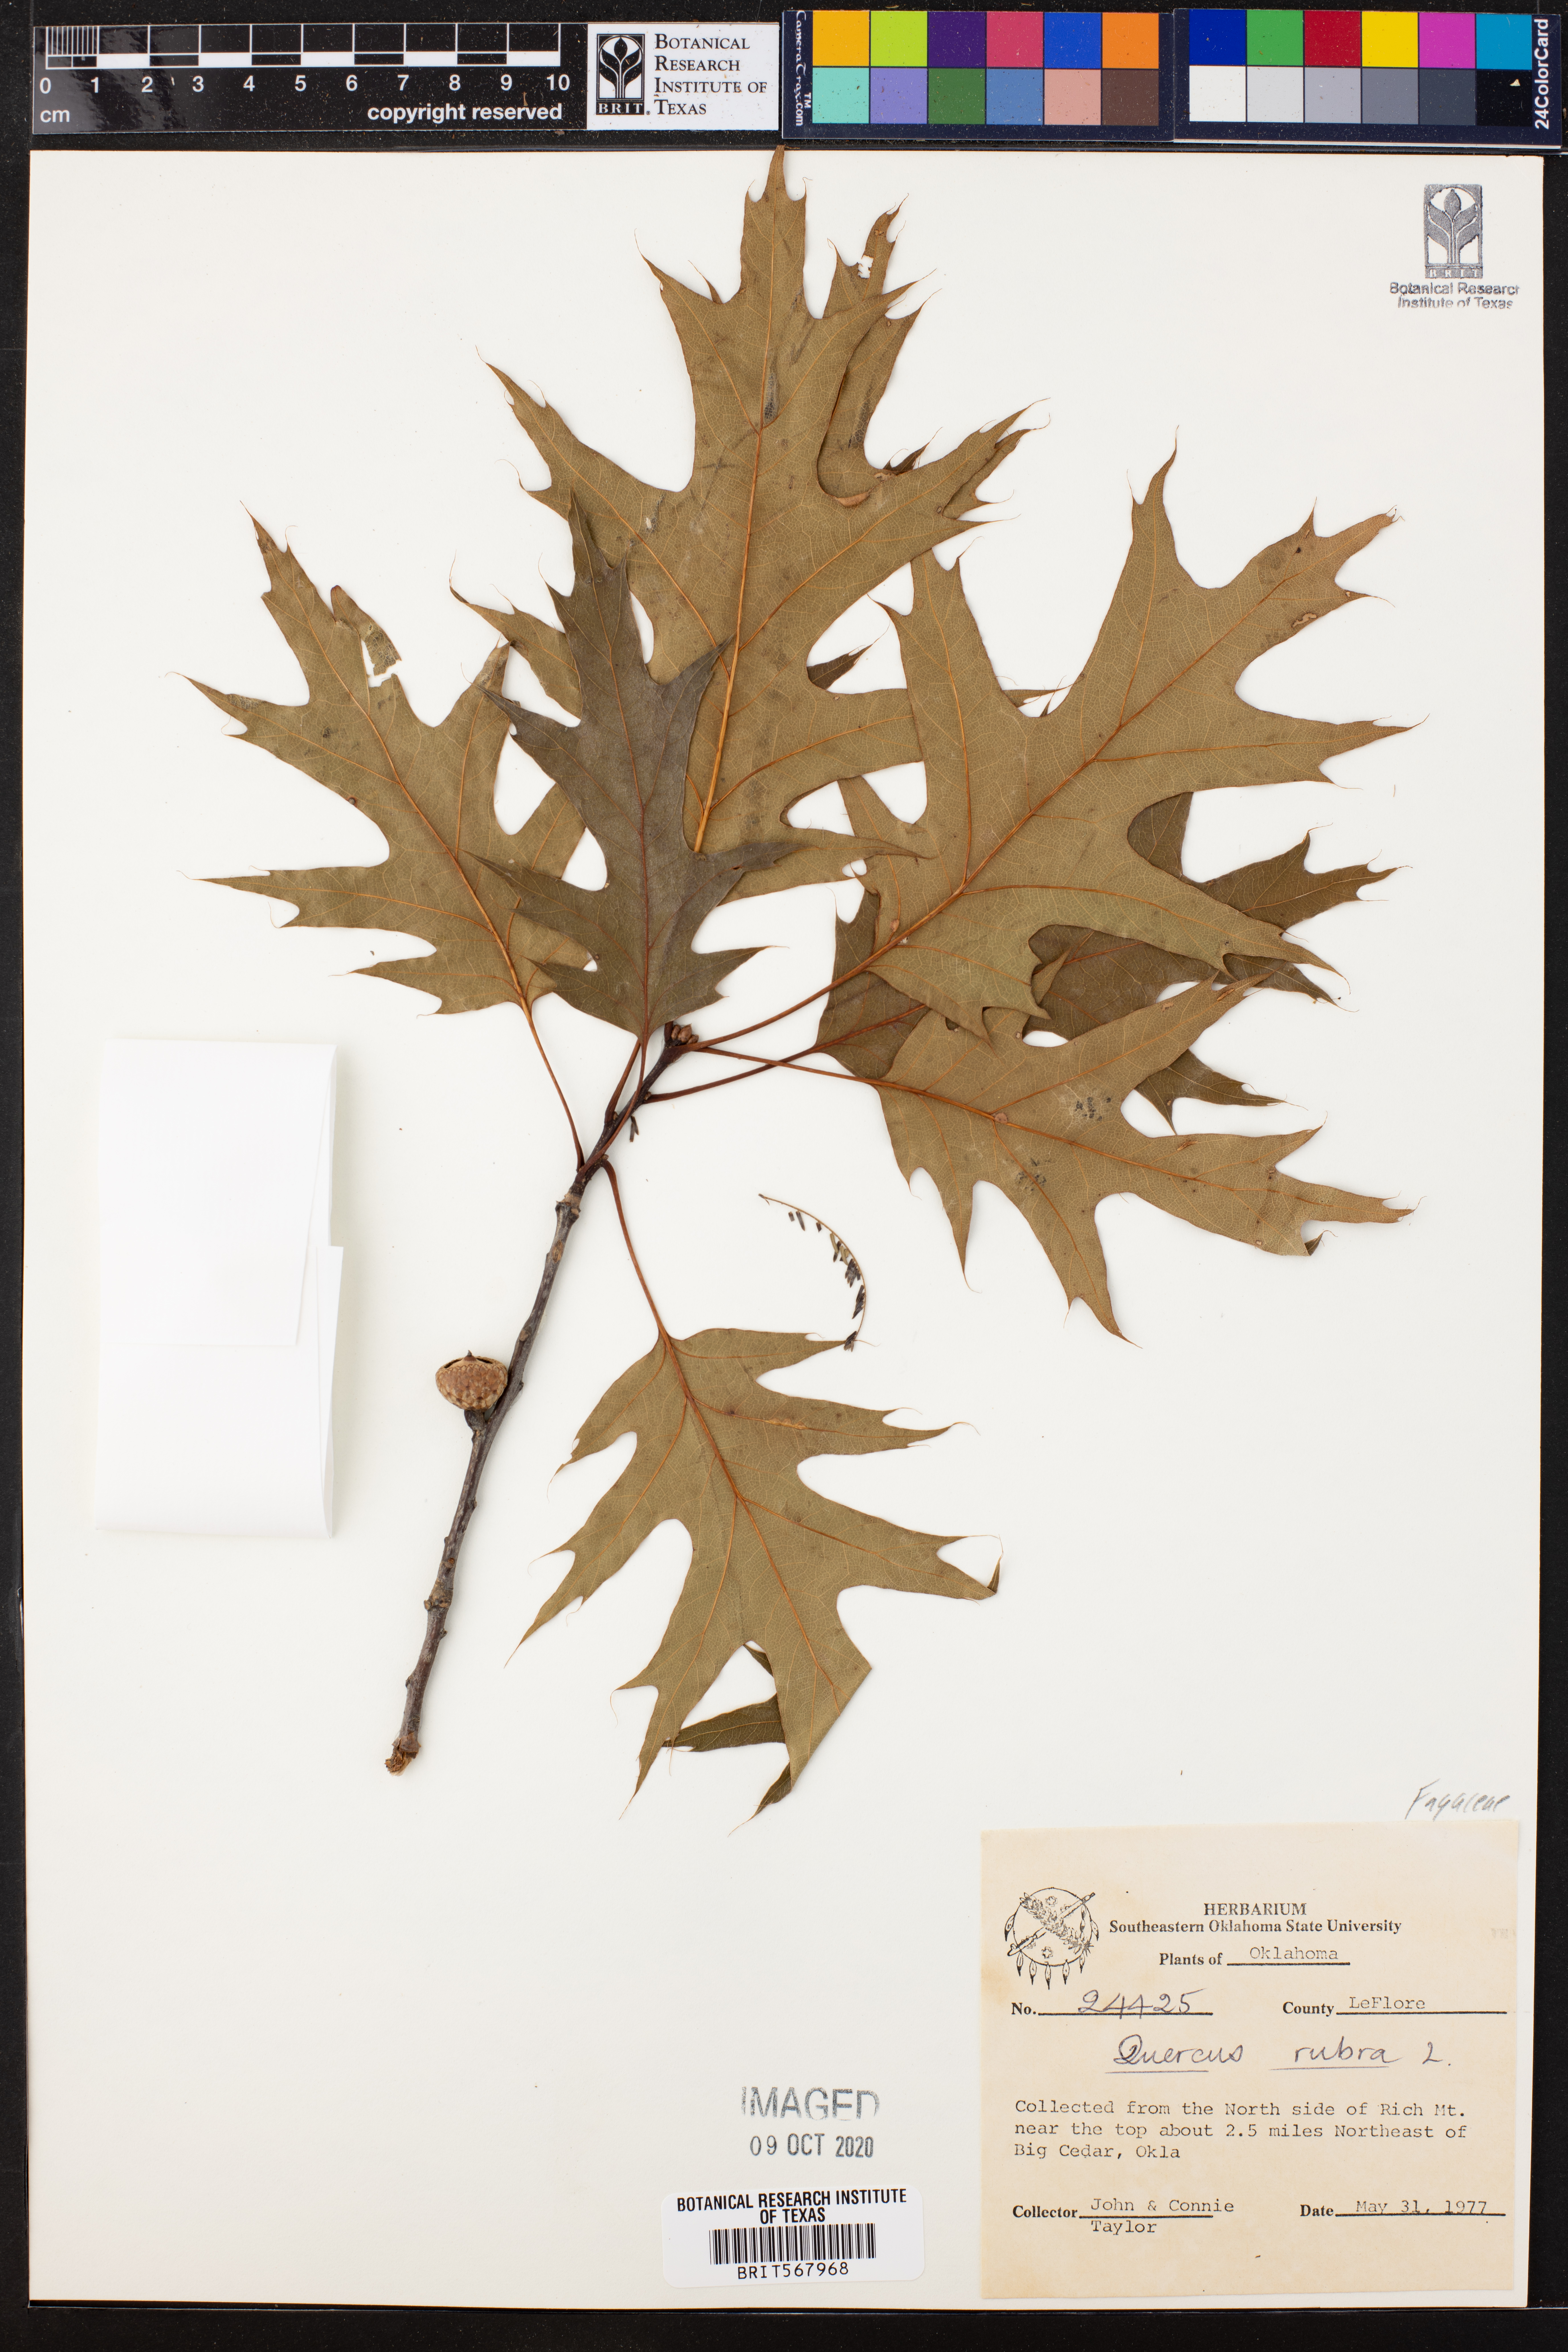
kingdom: Plantae
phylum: Tracheophyta
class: Magnoliopsida
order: Fagales
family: Fagaceae
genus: Quercus
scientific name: Quercus rubra
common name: Red oak
